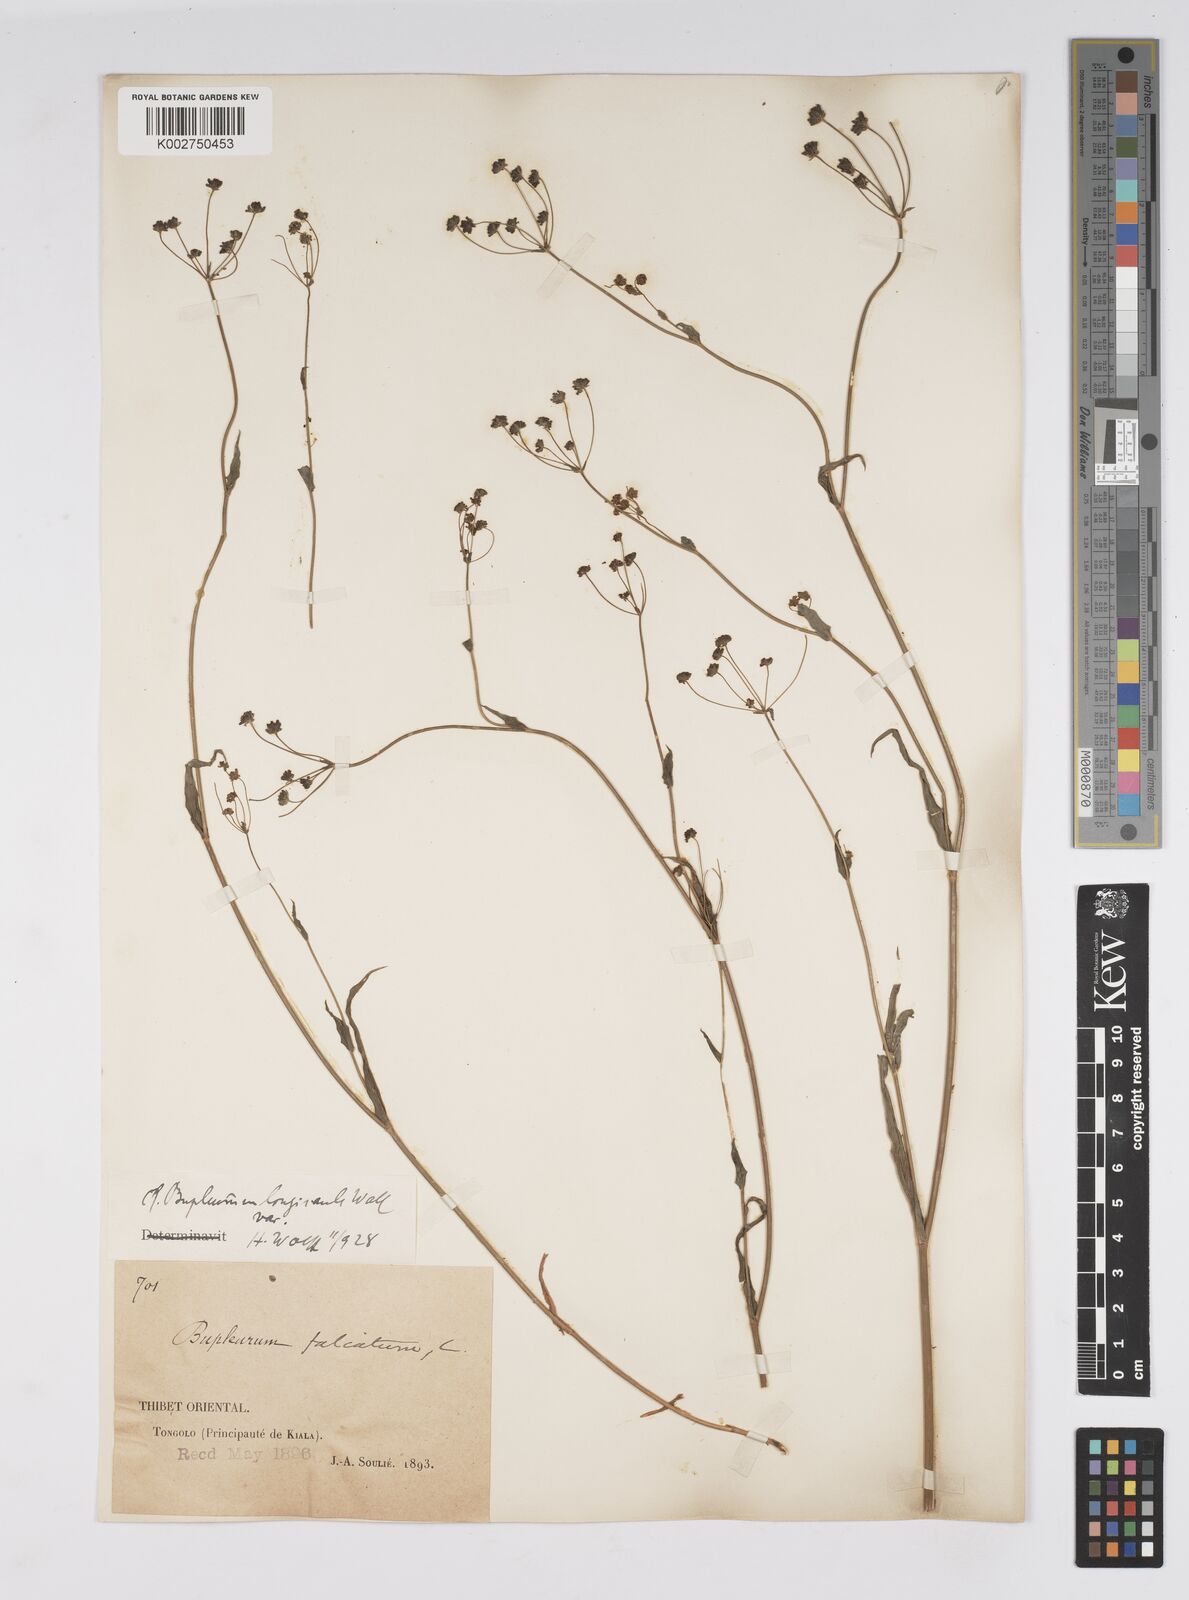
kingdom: Plantae
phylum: Tracheophyta
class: Magnoliopsida
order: Apiales
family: Apiaceae
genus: Bupleurum
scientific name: Bupleurum longicaule
